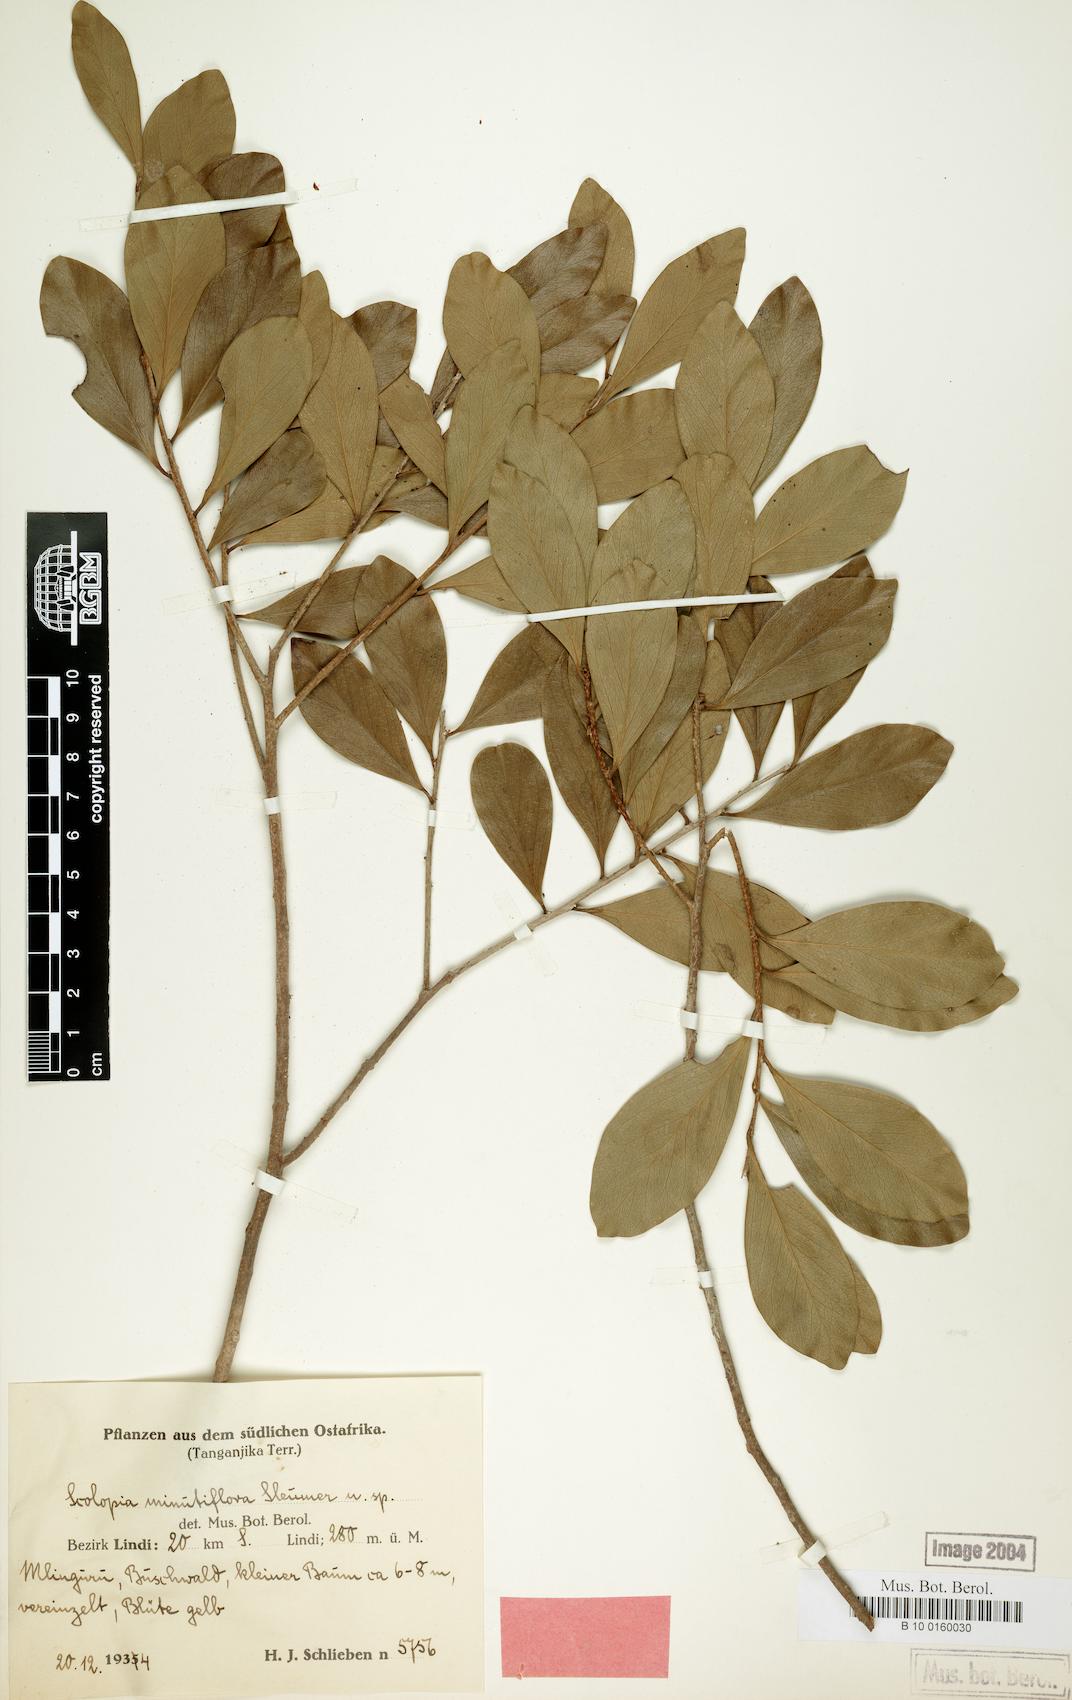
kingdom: Plantae
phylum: Tracheophyta
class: Magnoliopsida
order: Malpighiales
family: Salicaceae
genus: Ludia
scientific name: Ludia mauritiana
